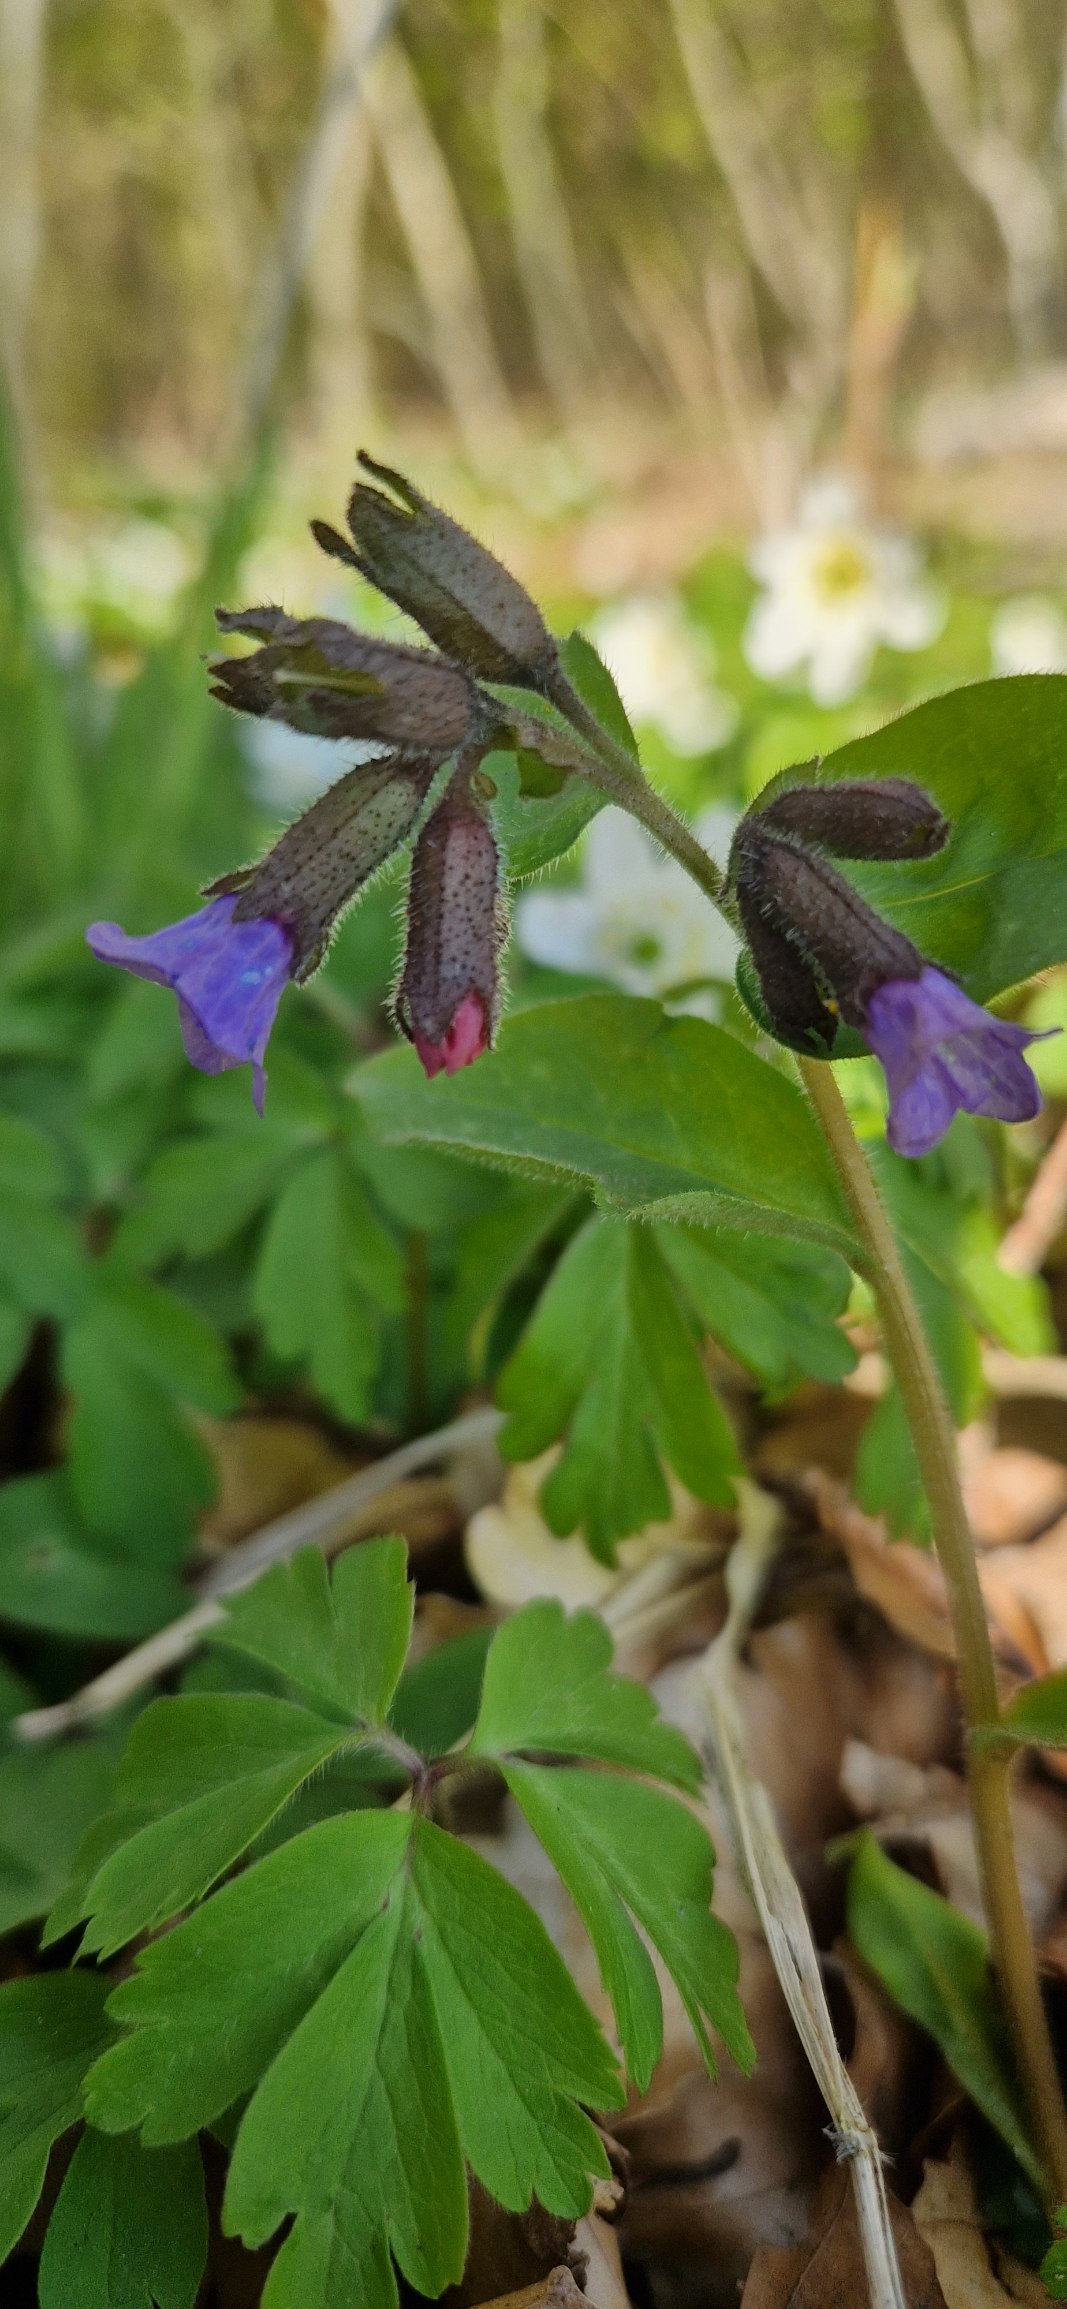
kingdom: Plantae
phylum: Tracheophyta
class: Magnoliopsida
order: Boraginales
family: Boraginaceae
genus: Pulmonaria
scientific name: Pulmonaria obscura
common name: Almindelig lungeurt
